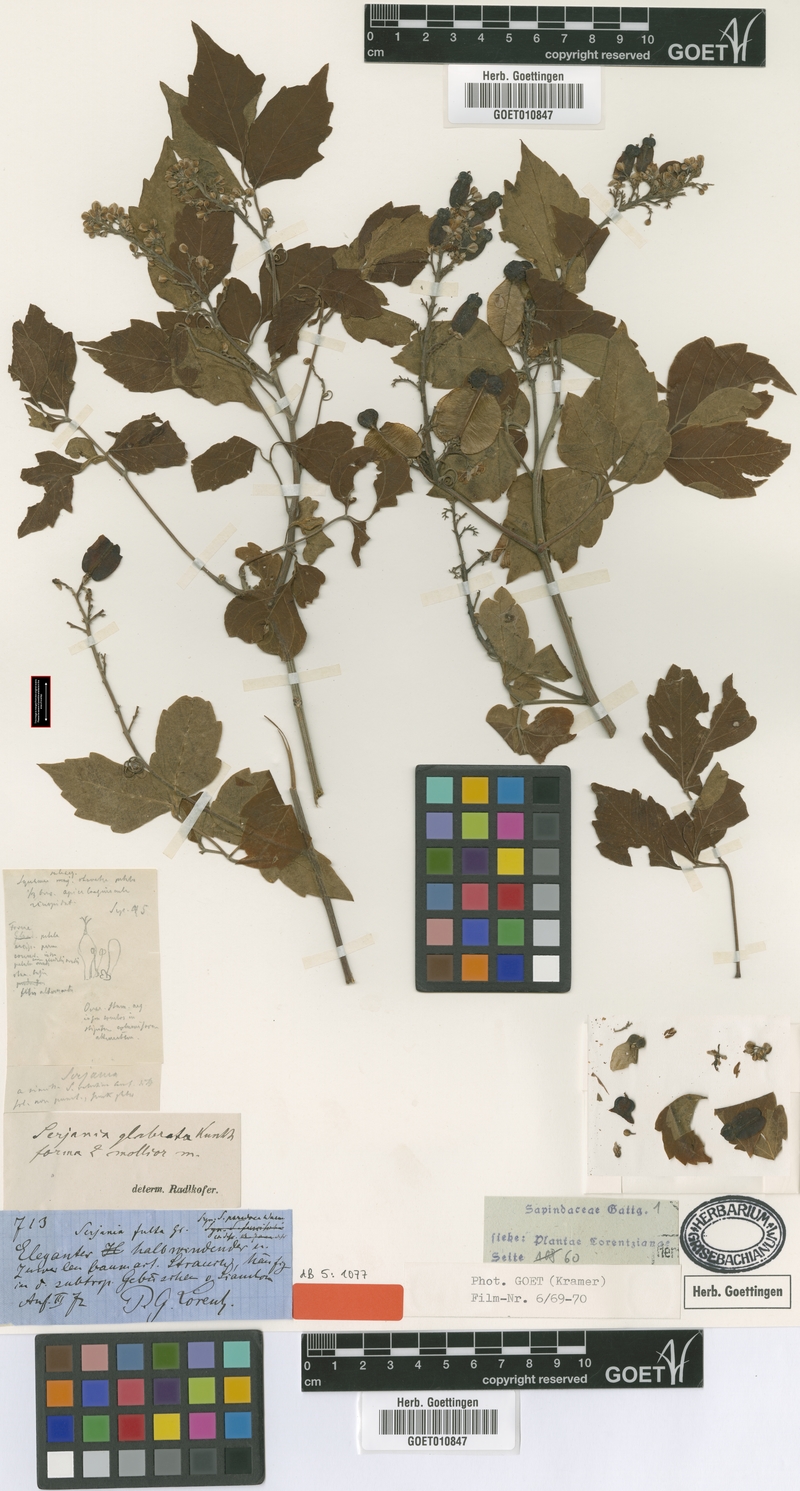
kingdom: Plantae
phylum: Tracheophyta
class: Magnoliopsida
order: Sapindales
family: Sapindaceae
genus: Serjania
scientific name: Serjania glabrata
